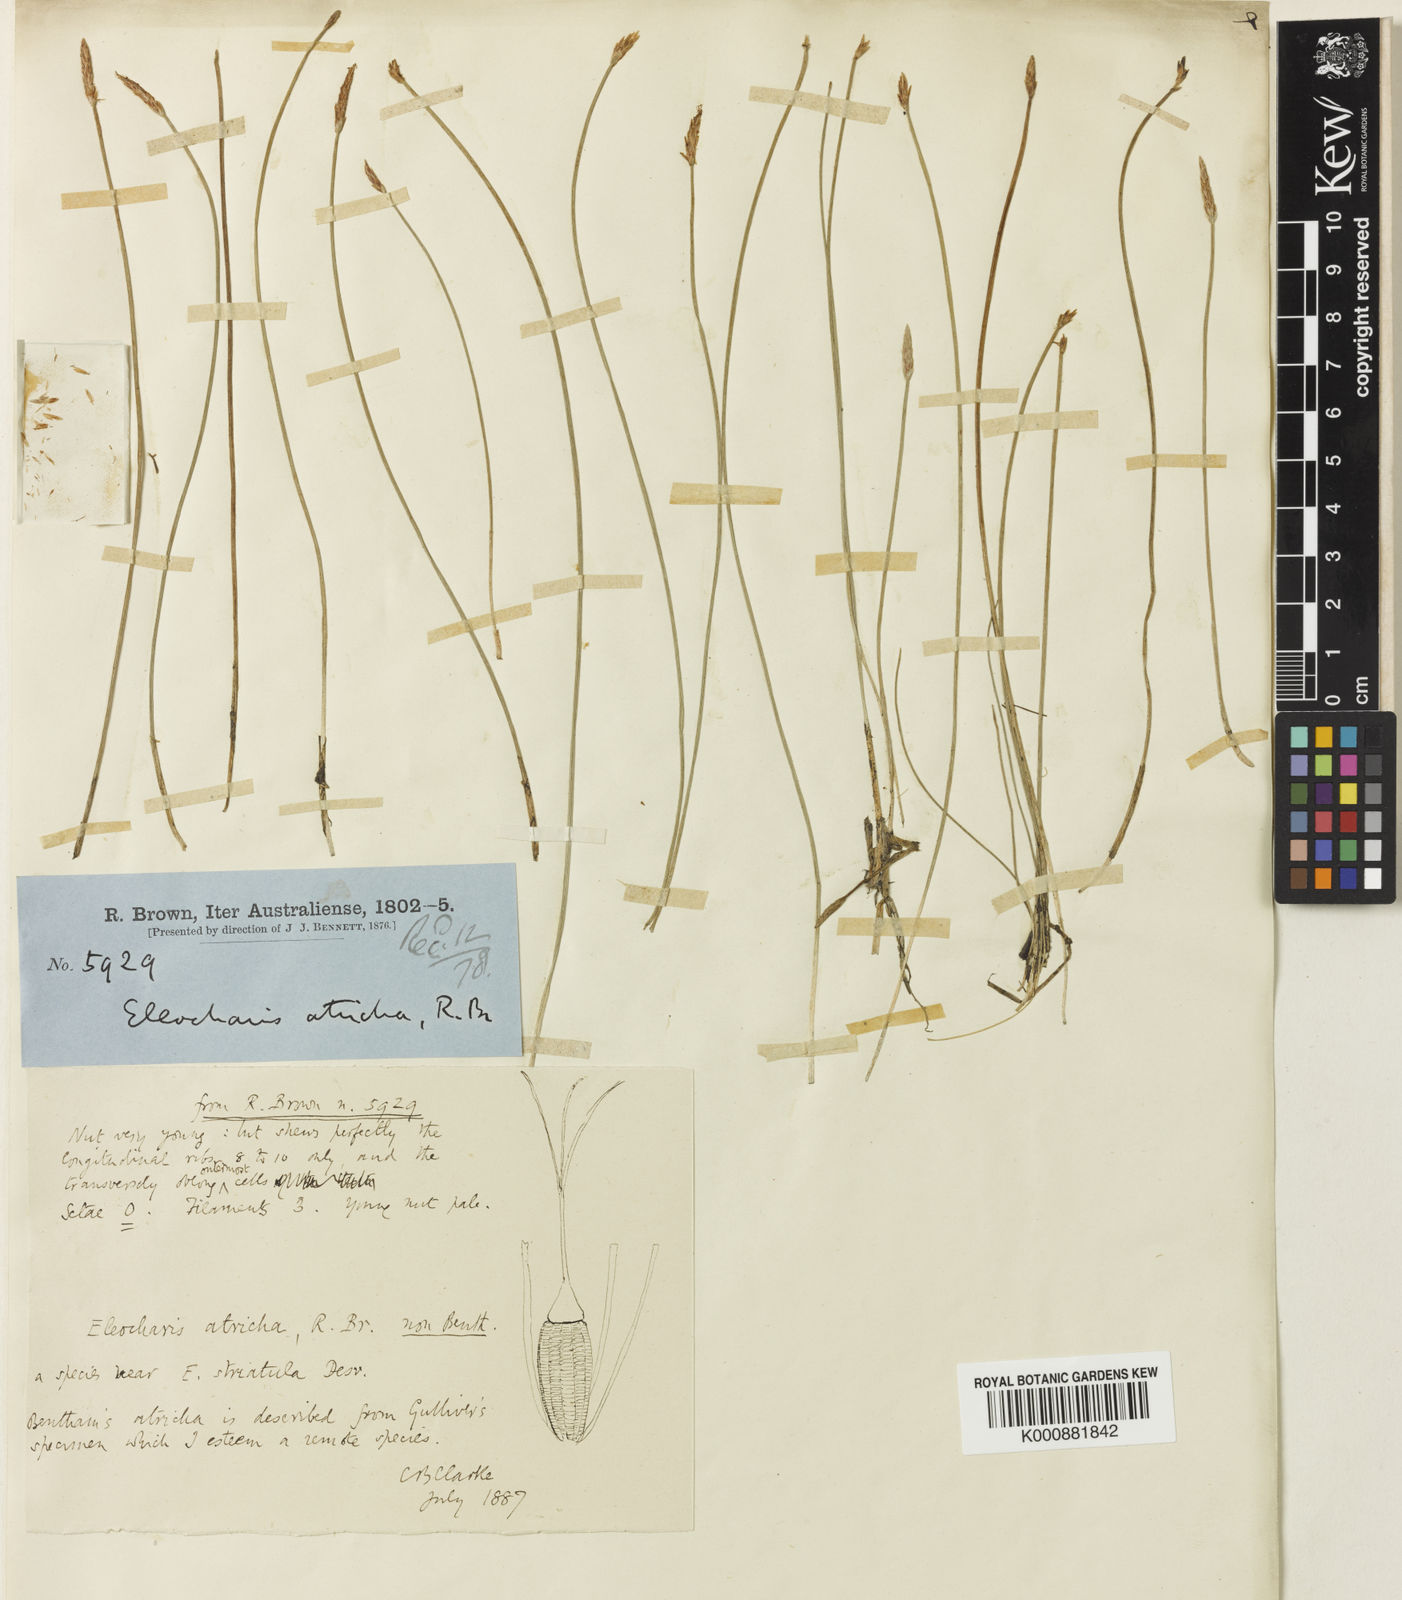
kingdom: Plantae
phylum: Tracheophyta
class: Liliopsida
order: Poales
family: Cyperaceae
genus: Eleocharis
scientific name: Eleocharis acicularis
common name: Needle spike-rush
